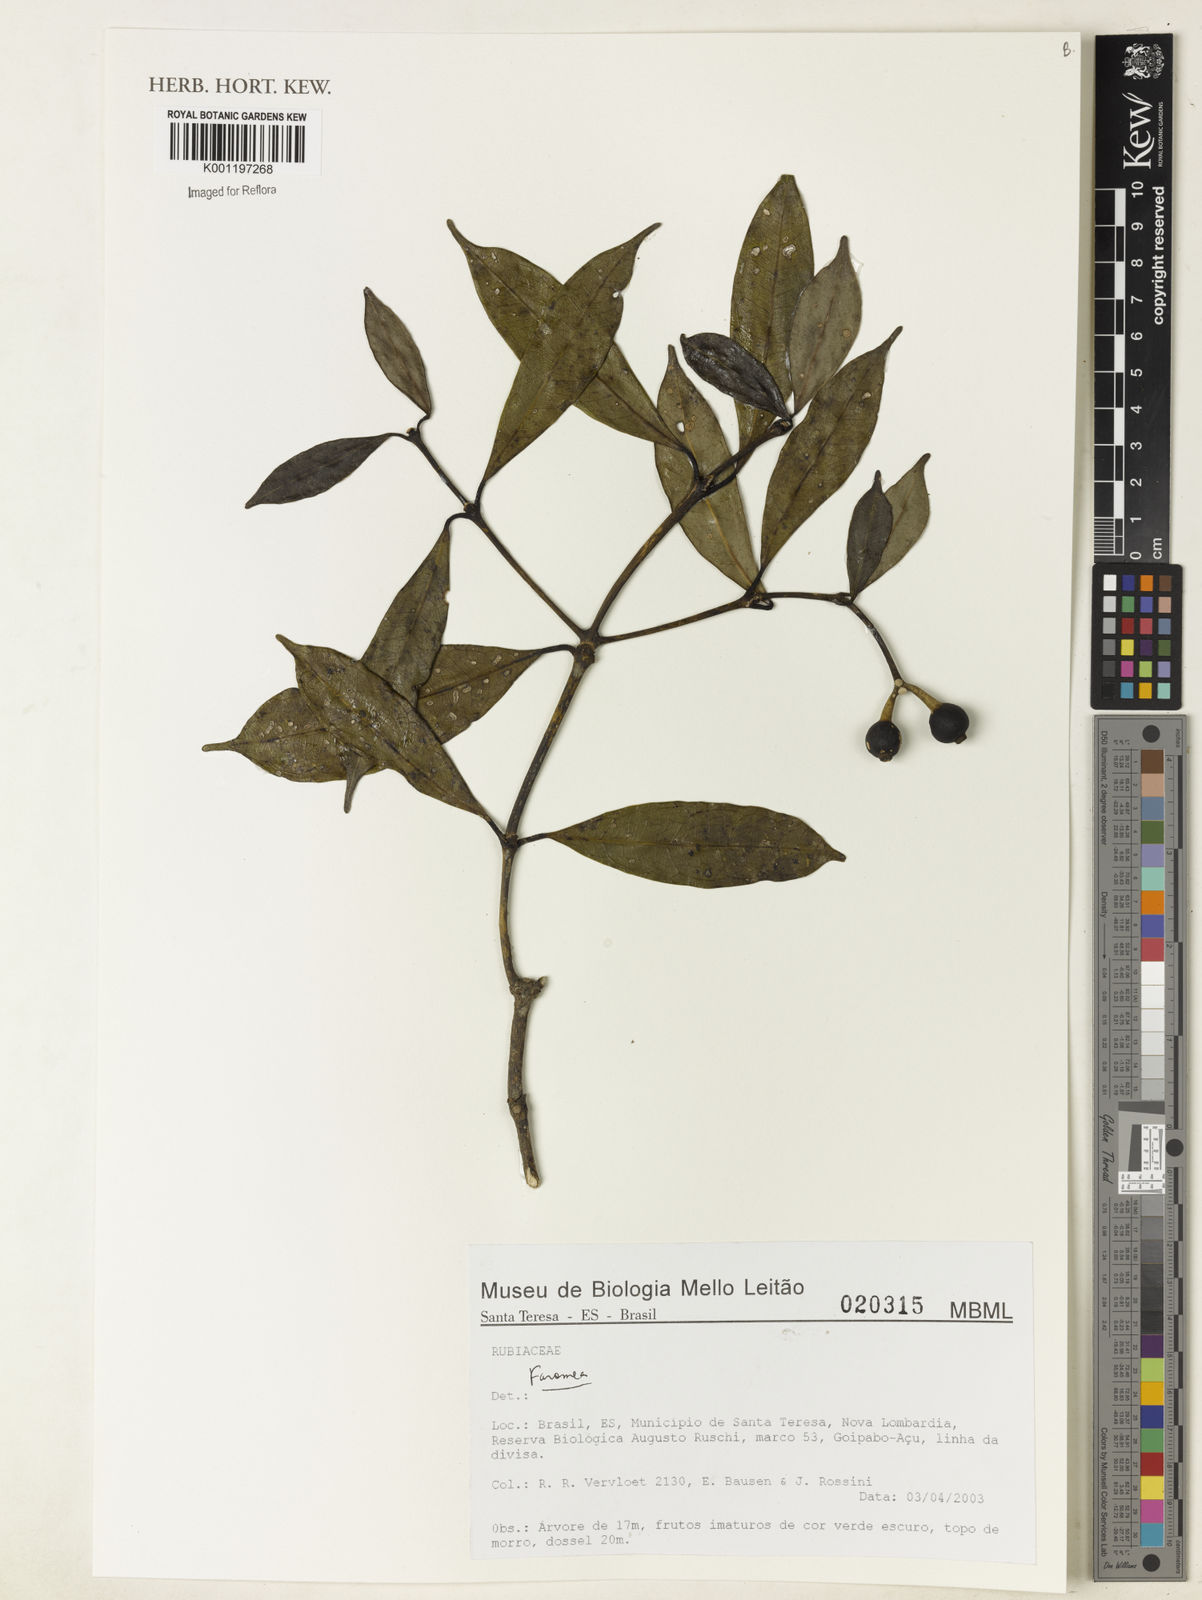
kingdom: Plantae
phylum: Tracheophyta
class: Magnoliopsida
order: Gentianales
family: Rubiaceae
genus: Faramea
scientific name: Faramea
